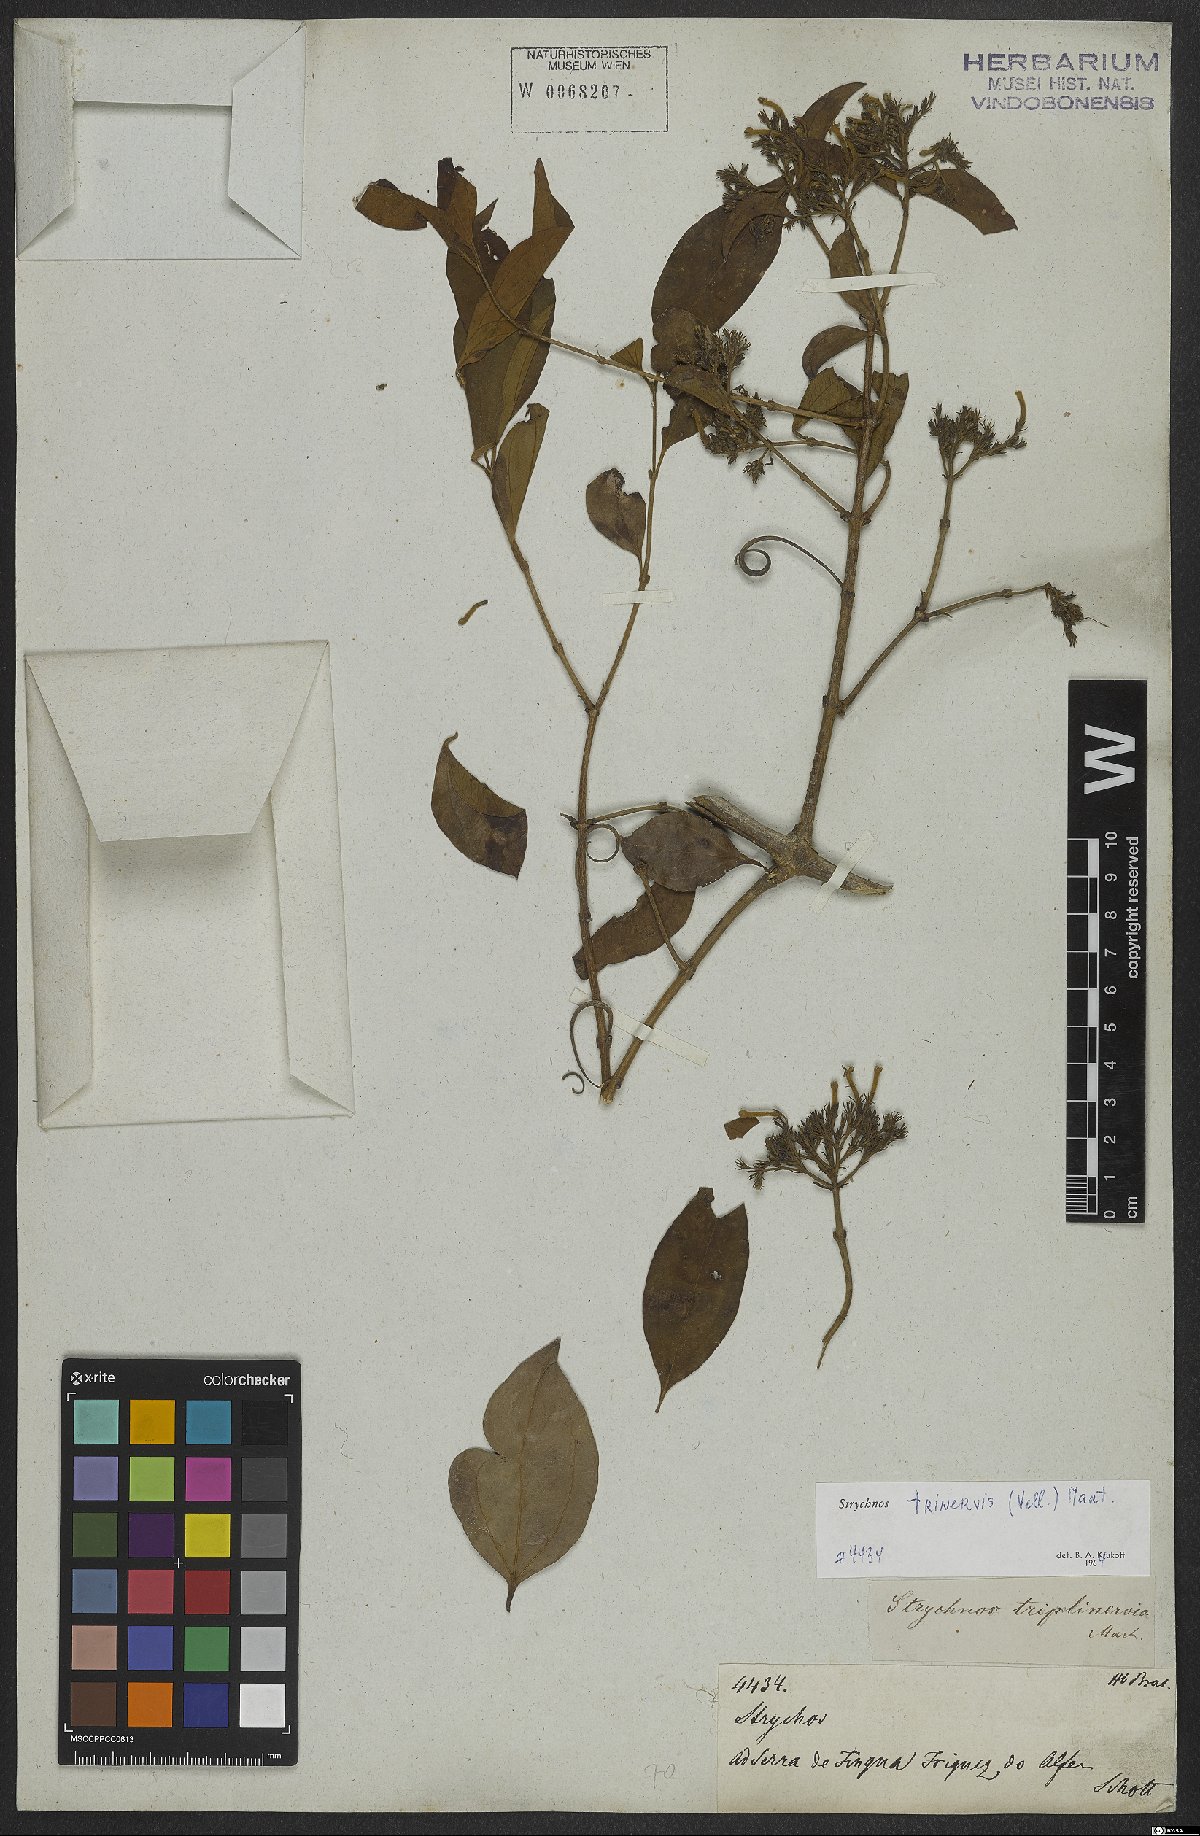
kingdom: Plantae
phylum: Tracheophyta
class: Magnoliopsida
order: Gentianales
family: Loganiaceae
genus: Strychnos
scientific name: Strychnos trinervis
